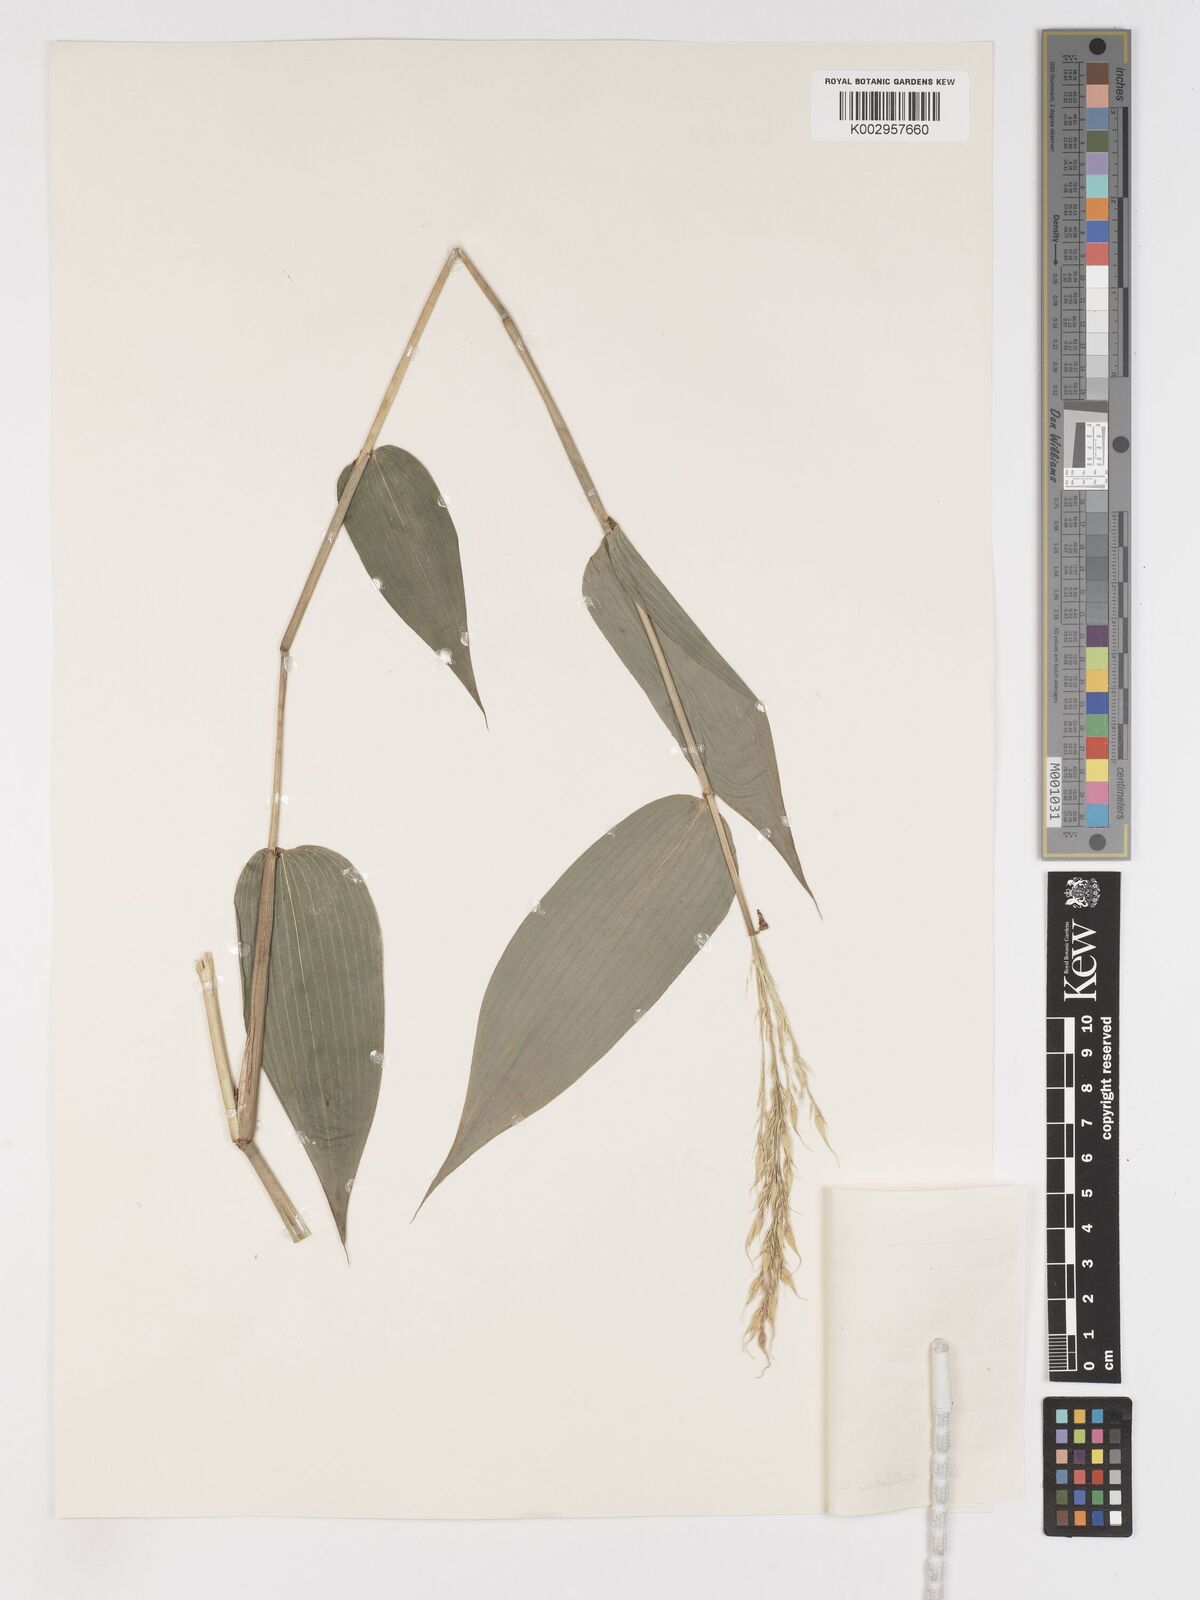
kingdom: Plantae
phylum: Tracheophyta
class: Liliopsida
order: Poales
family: Poaceae
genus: Olyra
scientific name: Olyra latifolia
